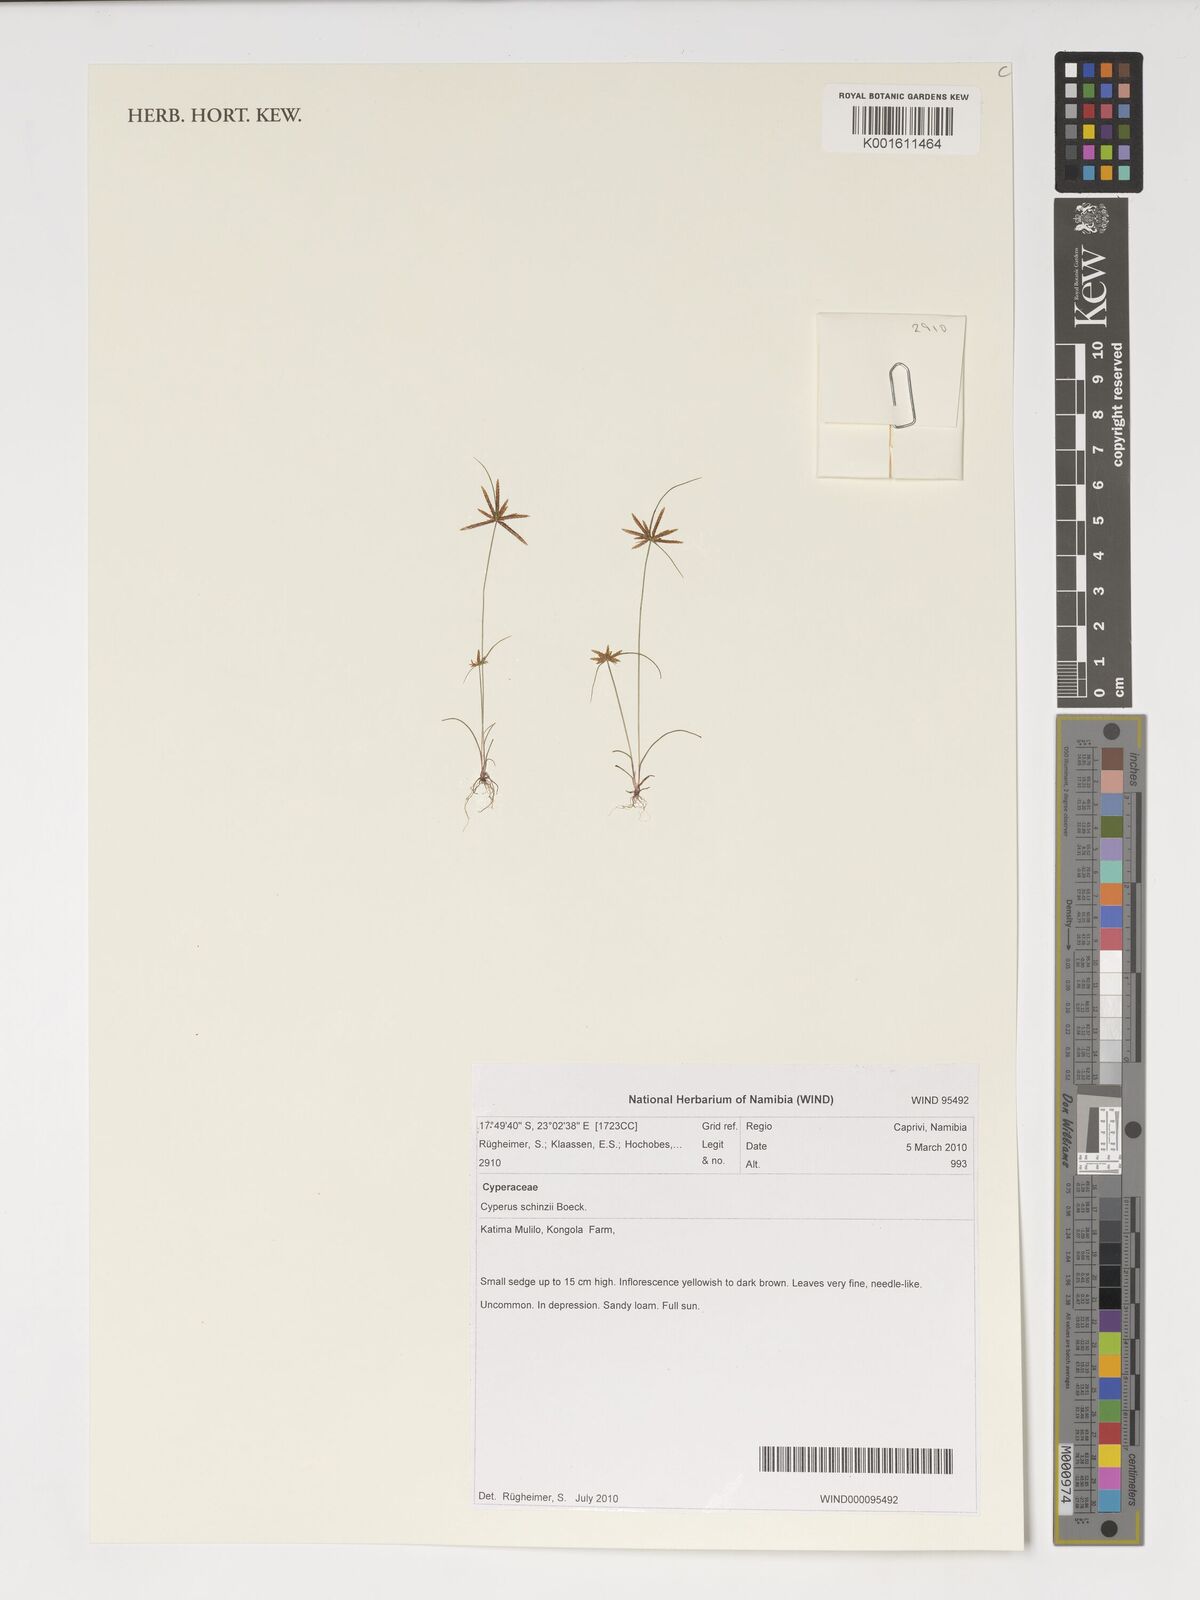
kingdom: Plantae
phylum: Tracheophyta
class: Liliopsida
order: Poales
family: Cyperaceae
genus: Cyperus
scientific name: Cyperus schinzii
